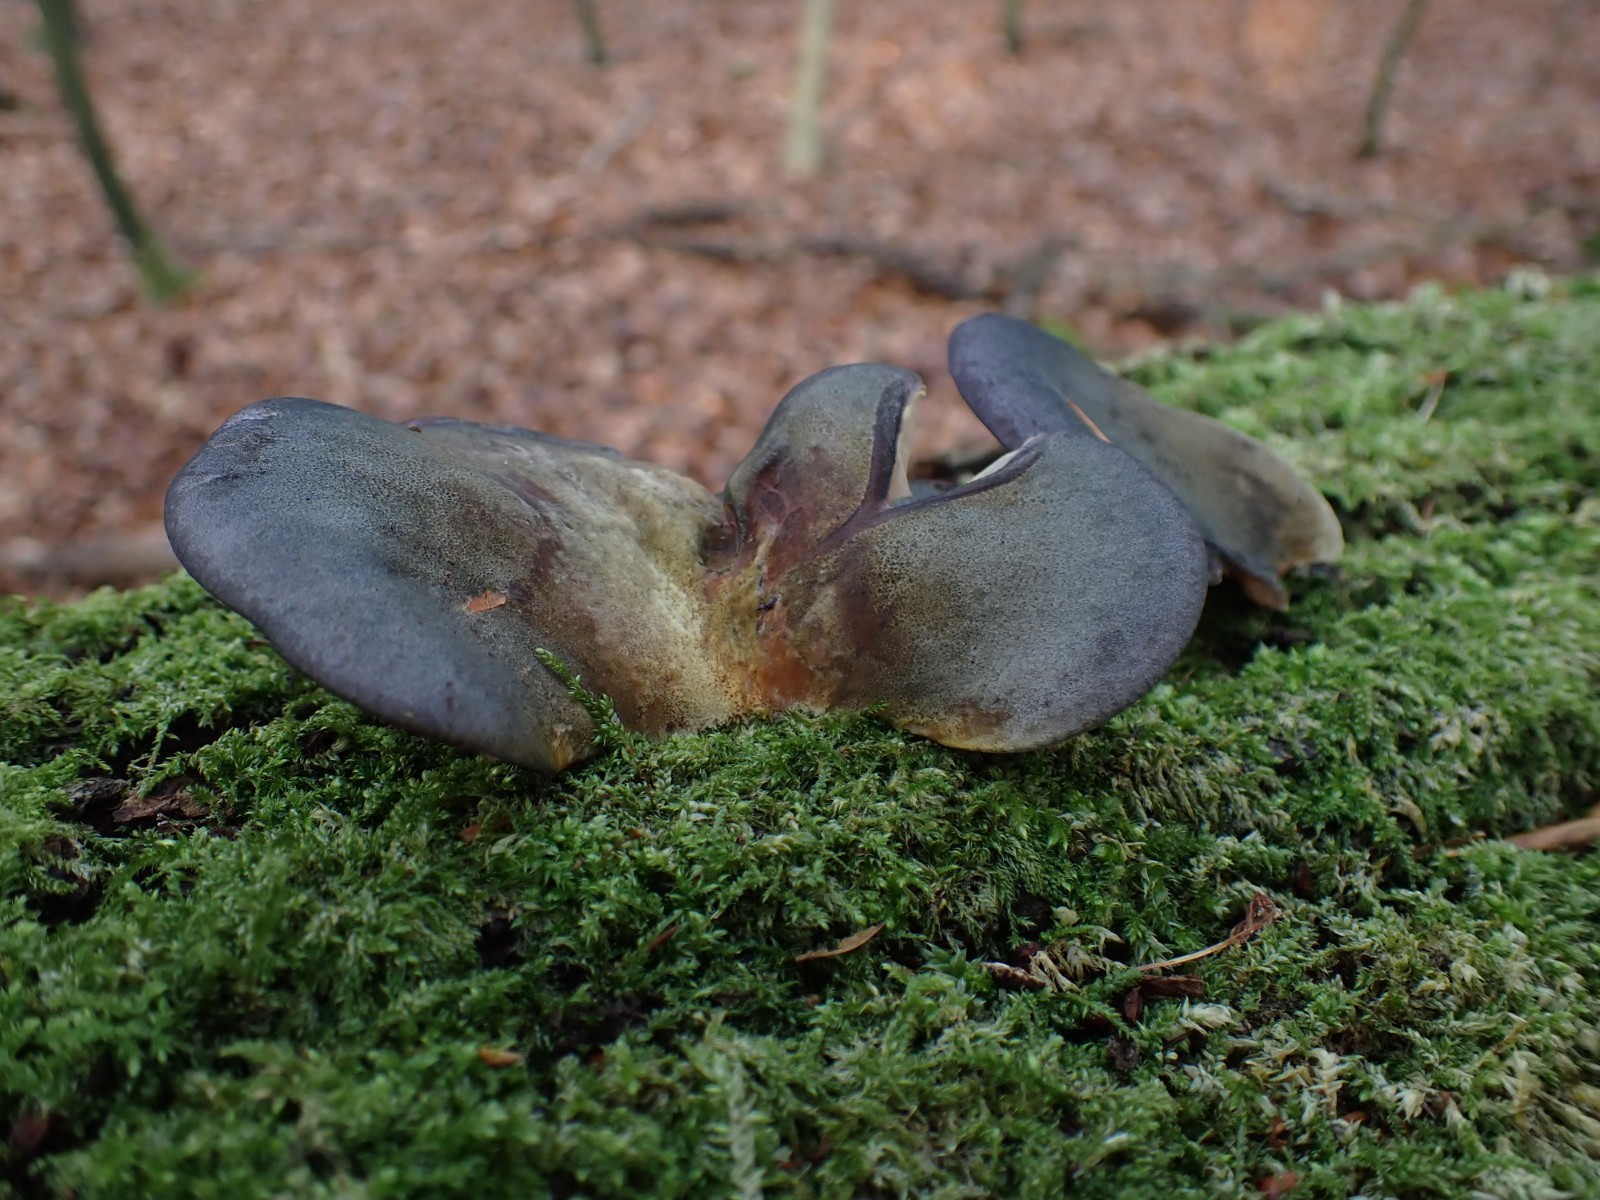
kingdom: Fungi
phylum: Basidiomycota
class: Agaricomycetes
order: Agaricales
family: Sarcomyxaceae
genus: Sarcomyxa
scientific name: Sarcomyxa serotina
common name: gummihat
